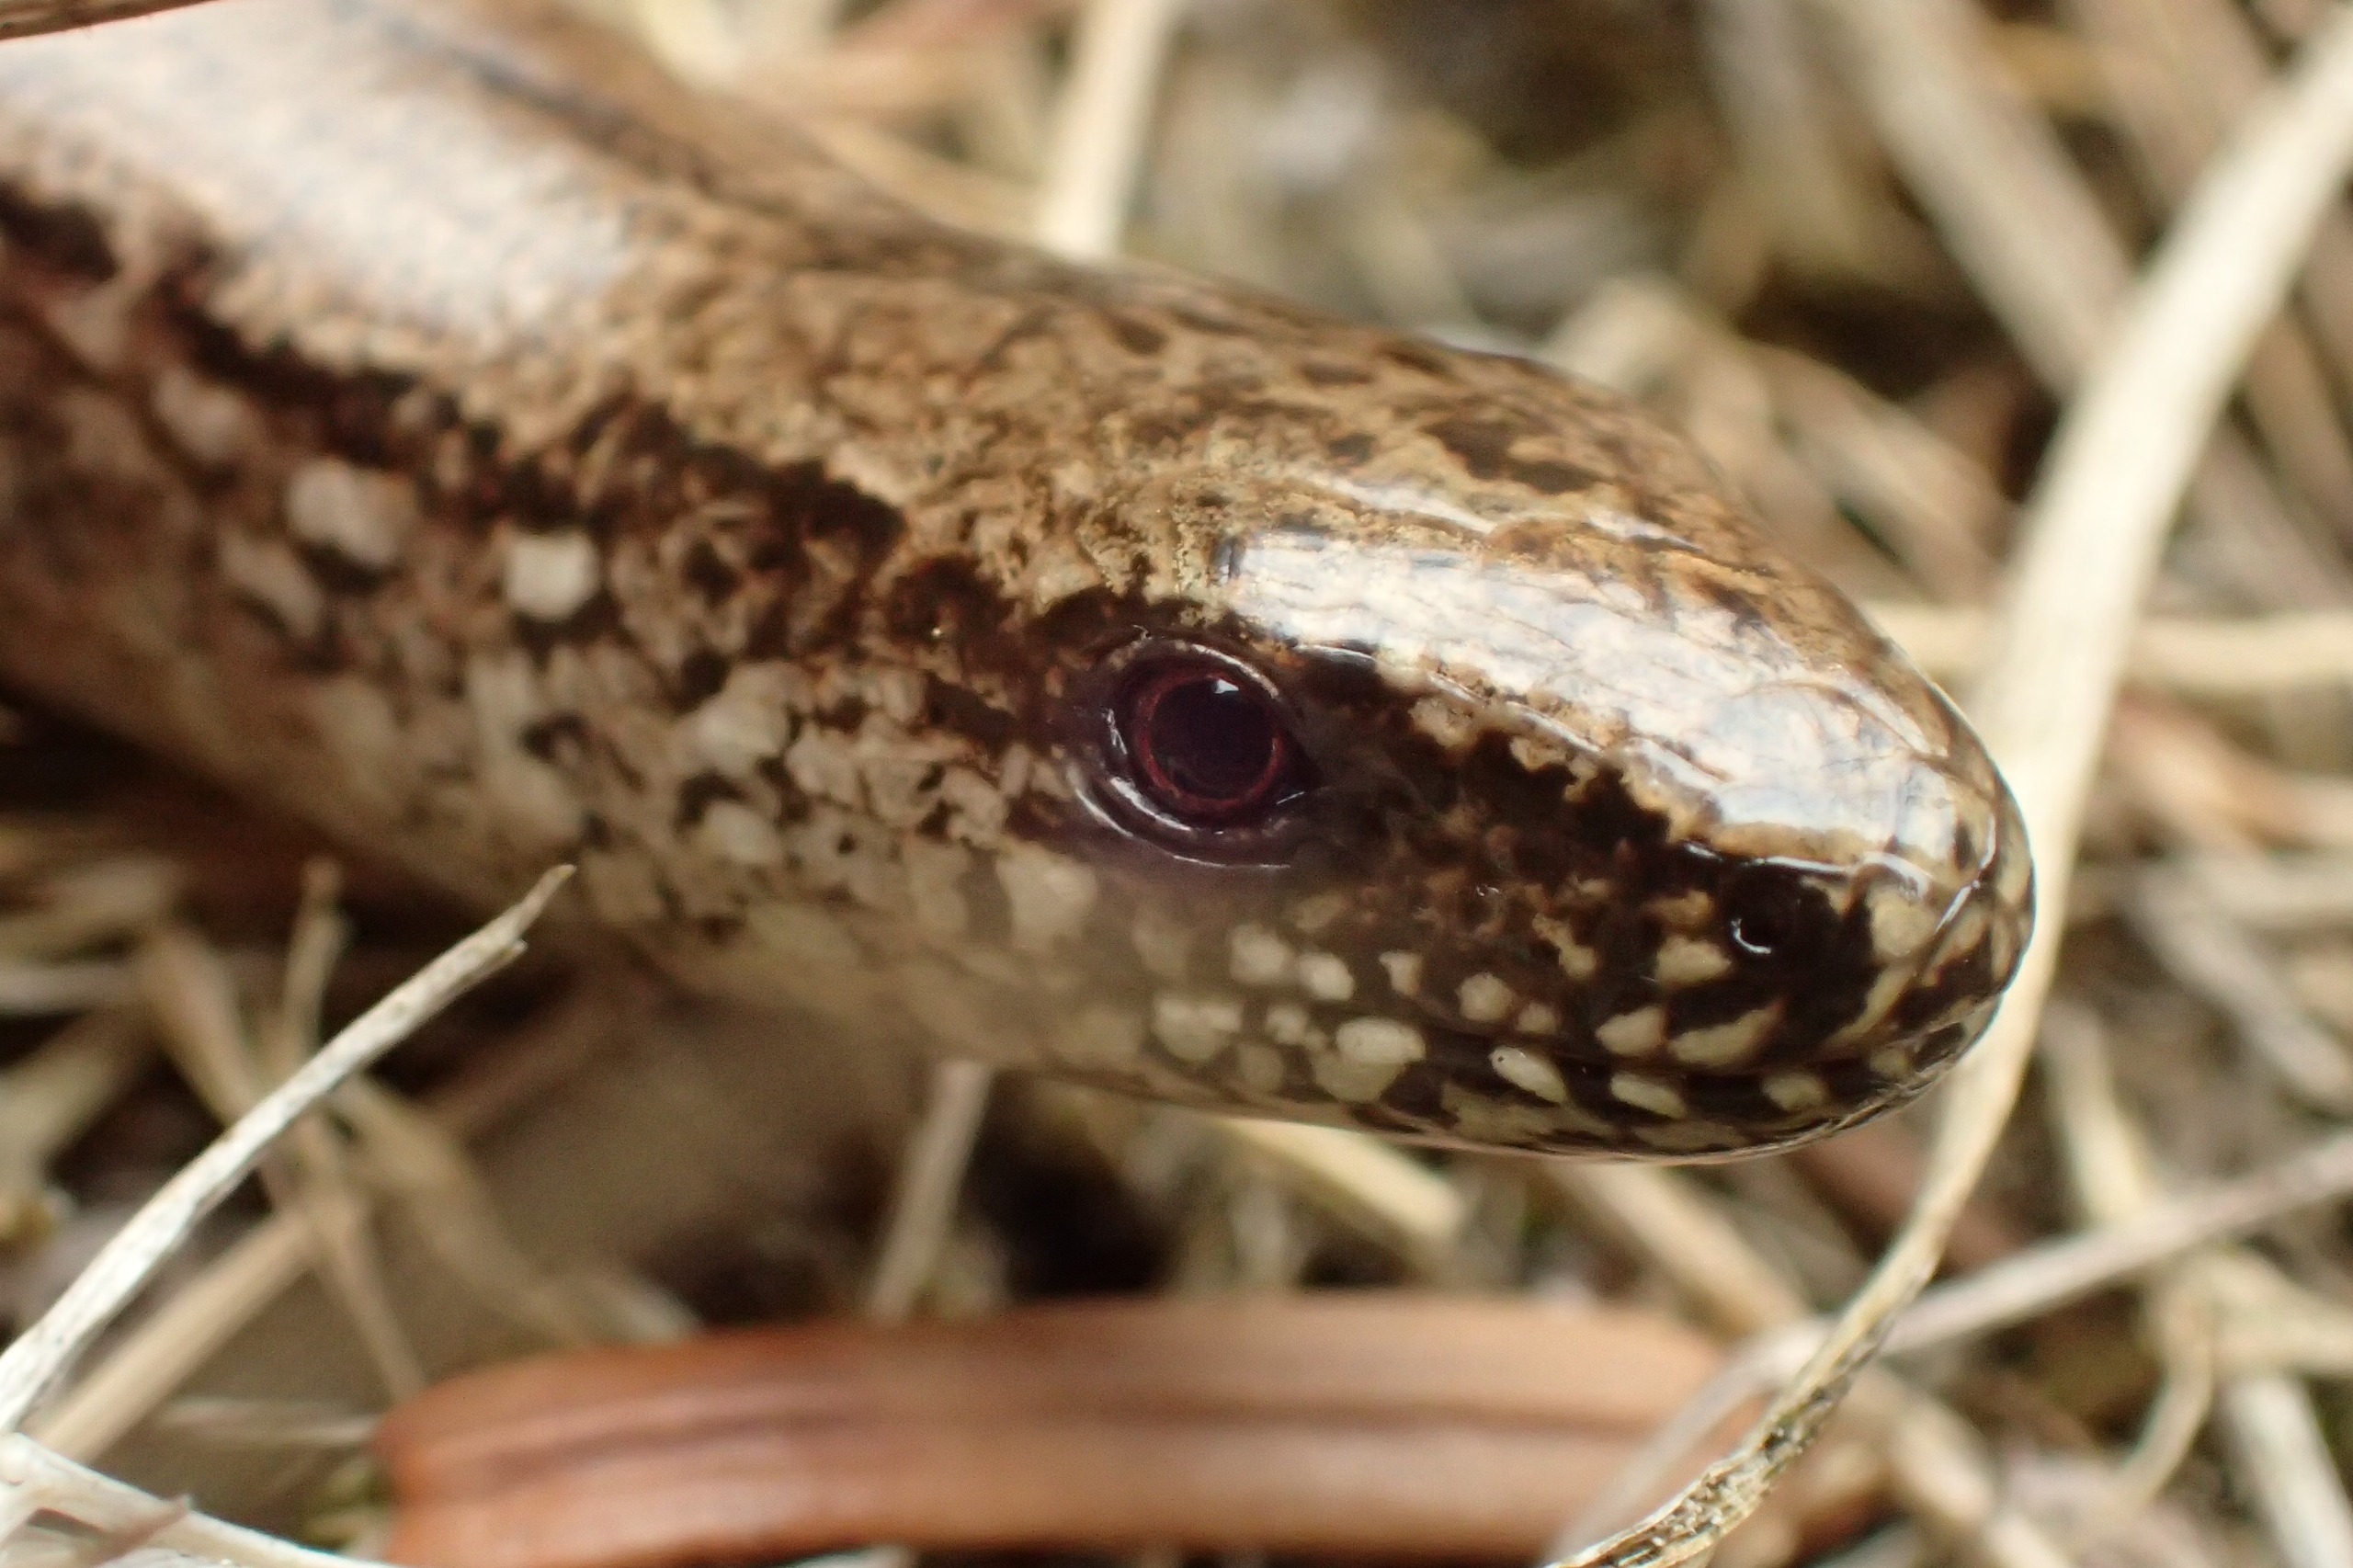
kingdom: Animalia
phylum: Chordata
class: Squamata
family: Anguidae
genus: Anguis
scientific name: Anguis fragilis
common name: Stålorm
